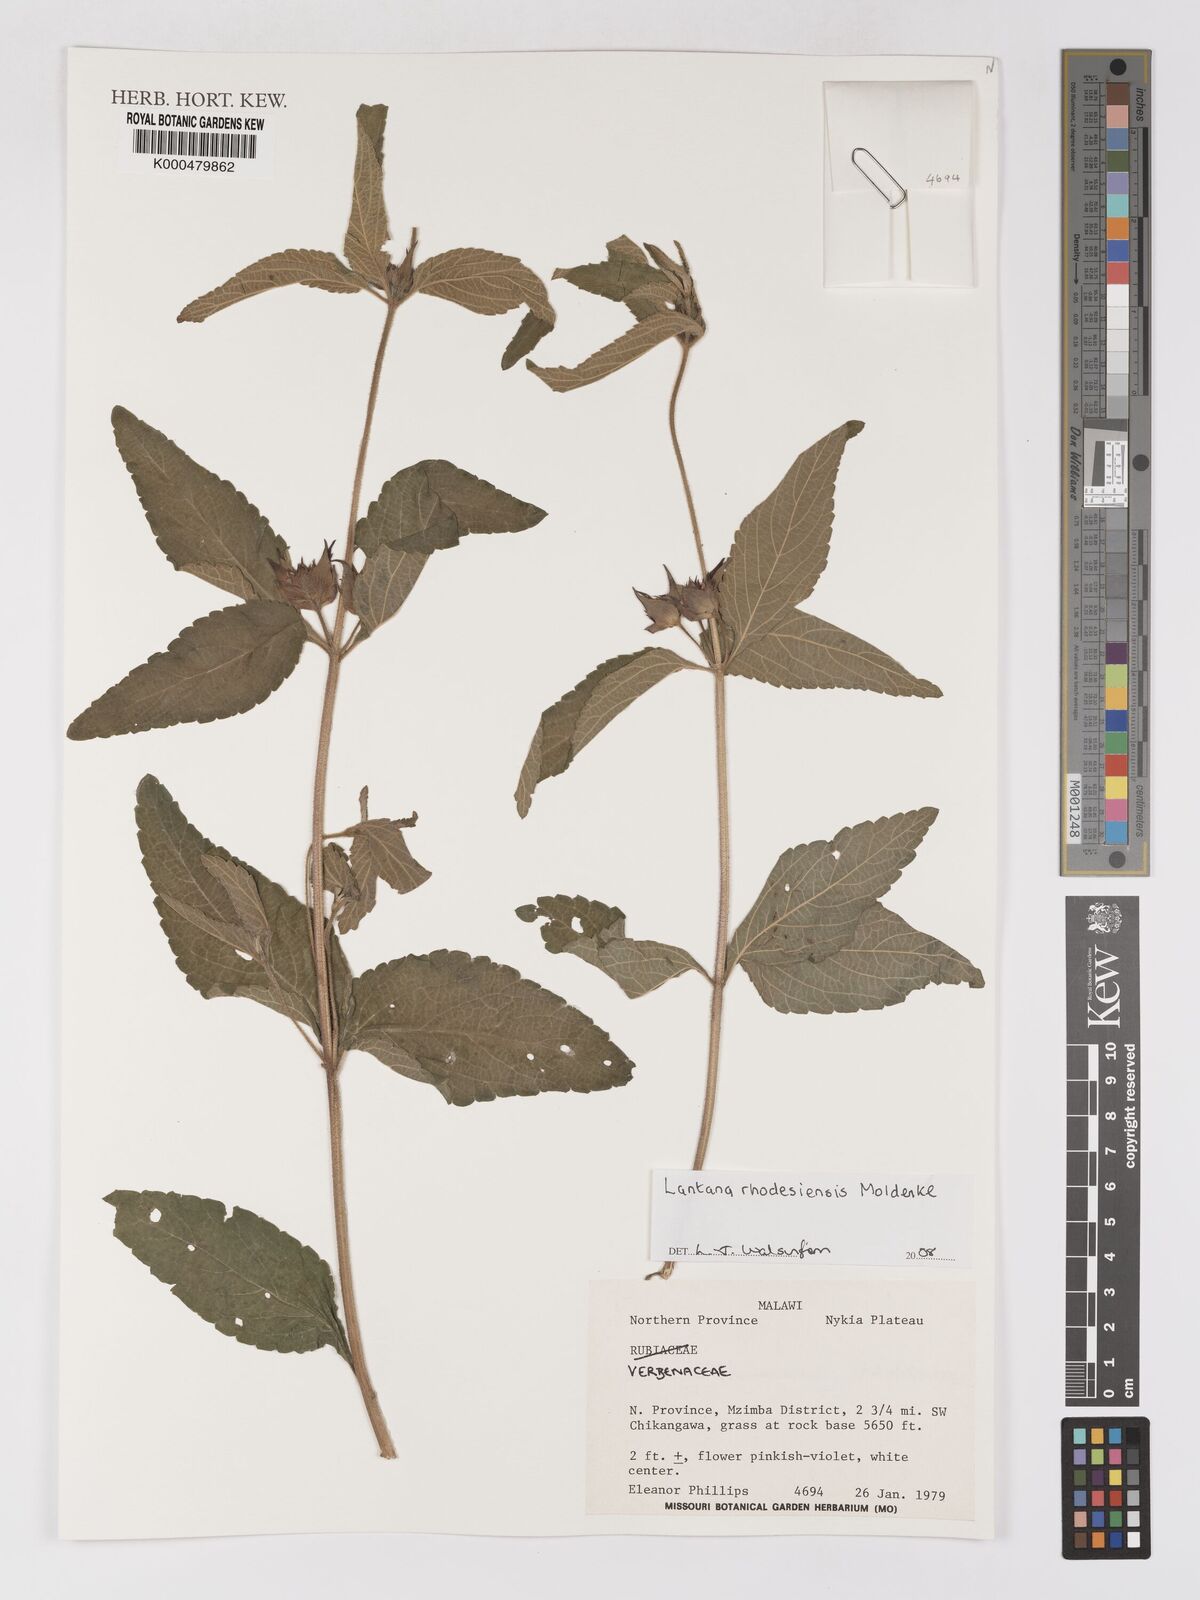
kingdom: Plantae
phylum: Tracheophyta
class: Magnoliopsida
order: Lamiales
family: Verbenaceae
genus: Lantana
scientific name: Lantana ukambensis
